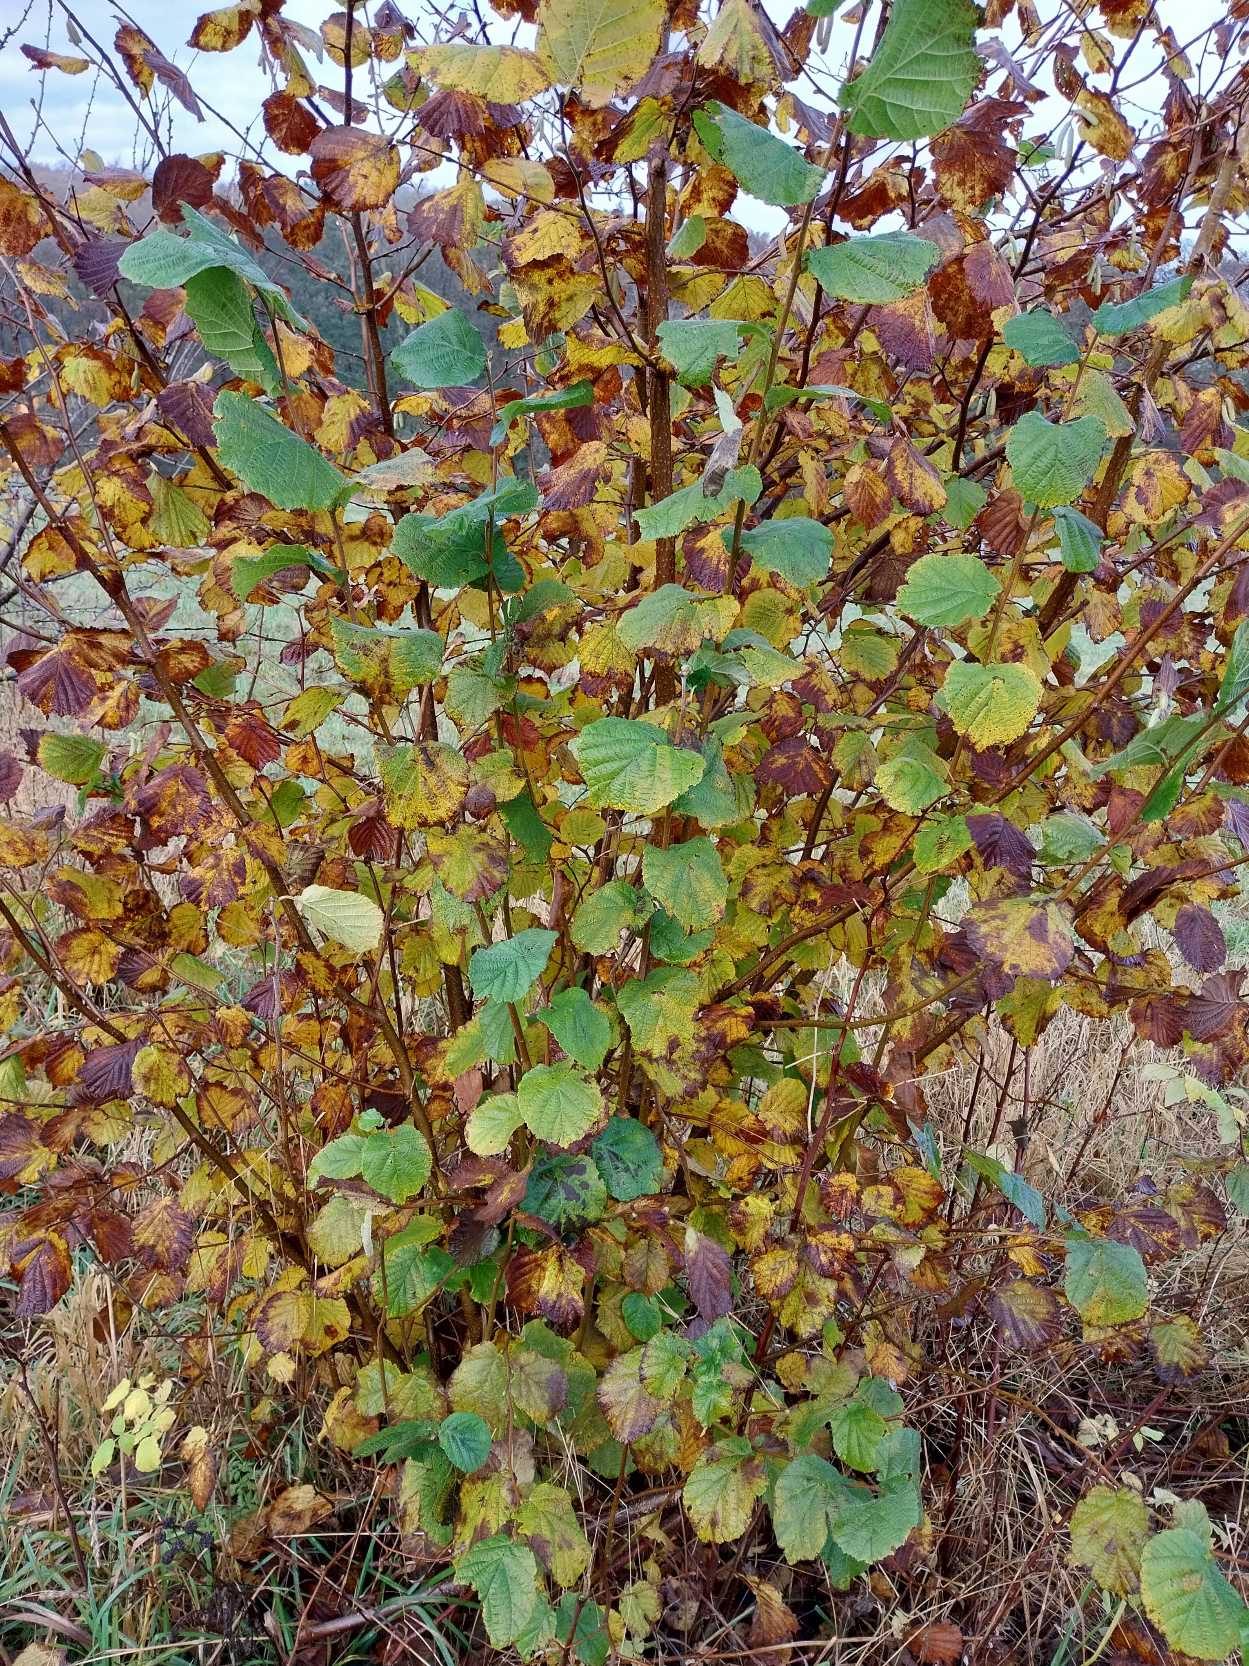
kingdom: Plantae
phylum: Tracheophyta
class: Magnoliopsida
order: Fagales
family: Betulaceae
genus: Corylus
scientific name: Corylus avellana
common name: Hassel
